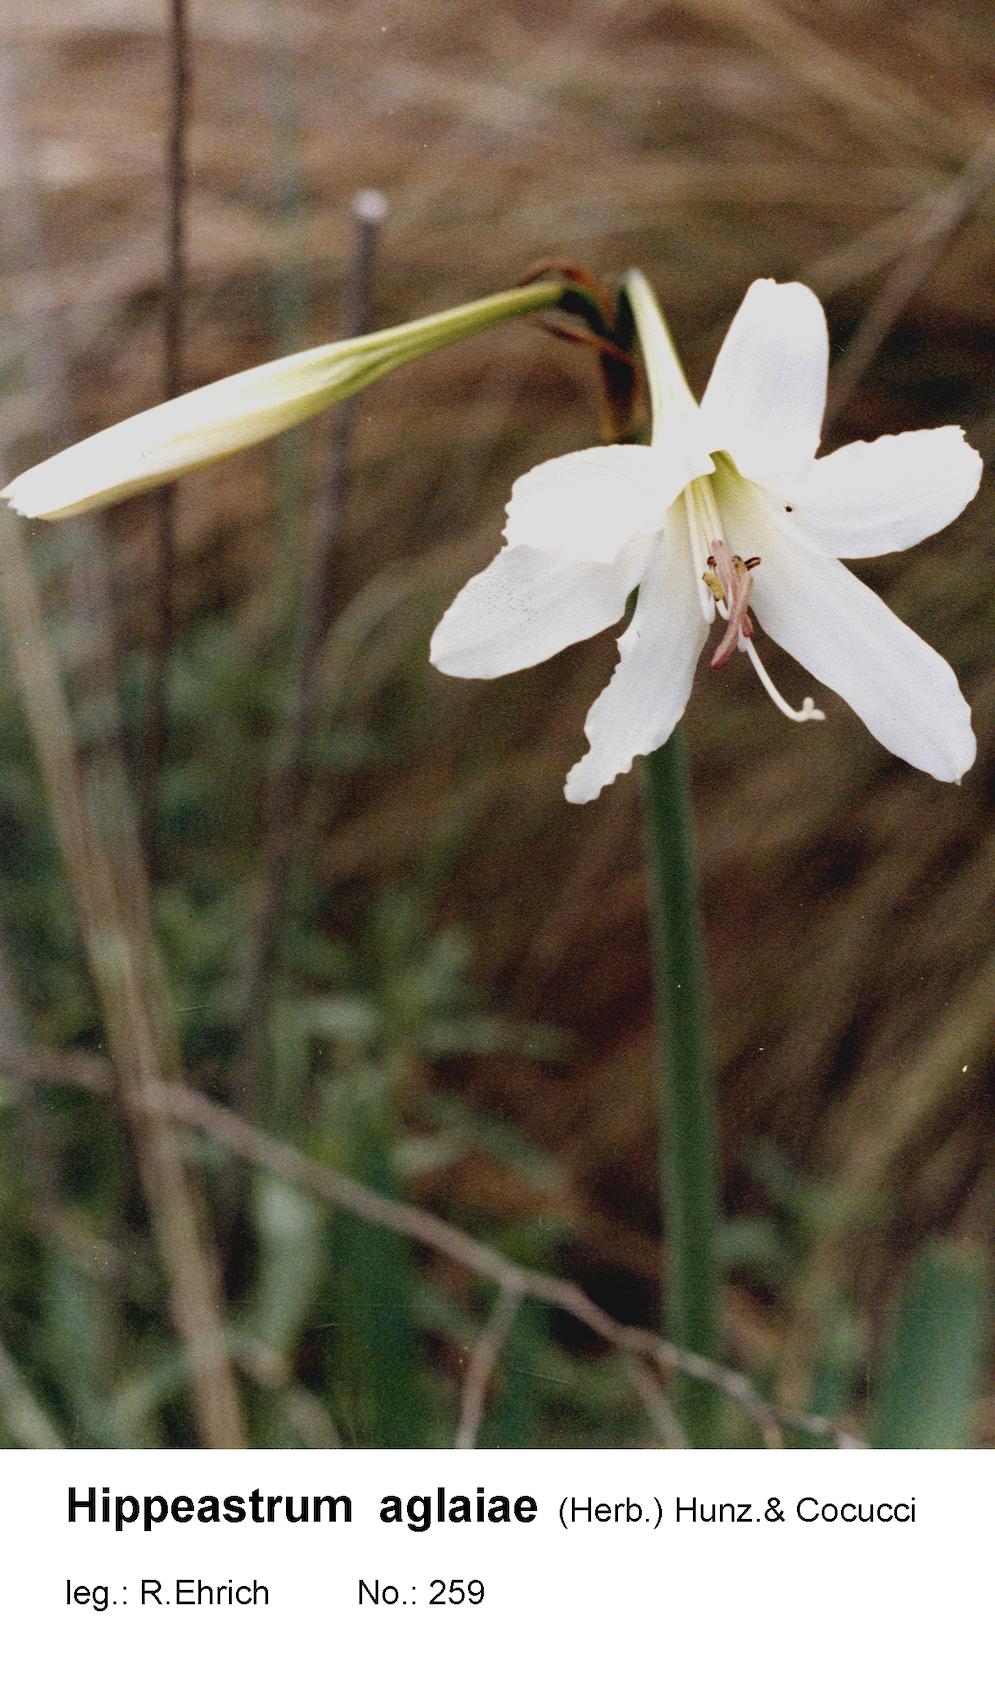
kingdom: Plantae
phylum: Tracheophyta
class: Liliopsida
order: Asparagales
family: Amaryllidaceae
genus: Hippeastrum
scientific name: Hippeastrum aglaiae
